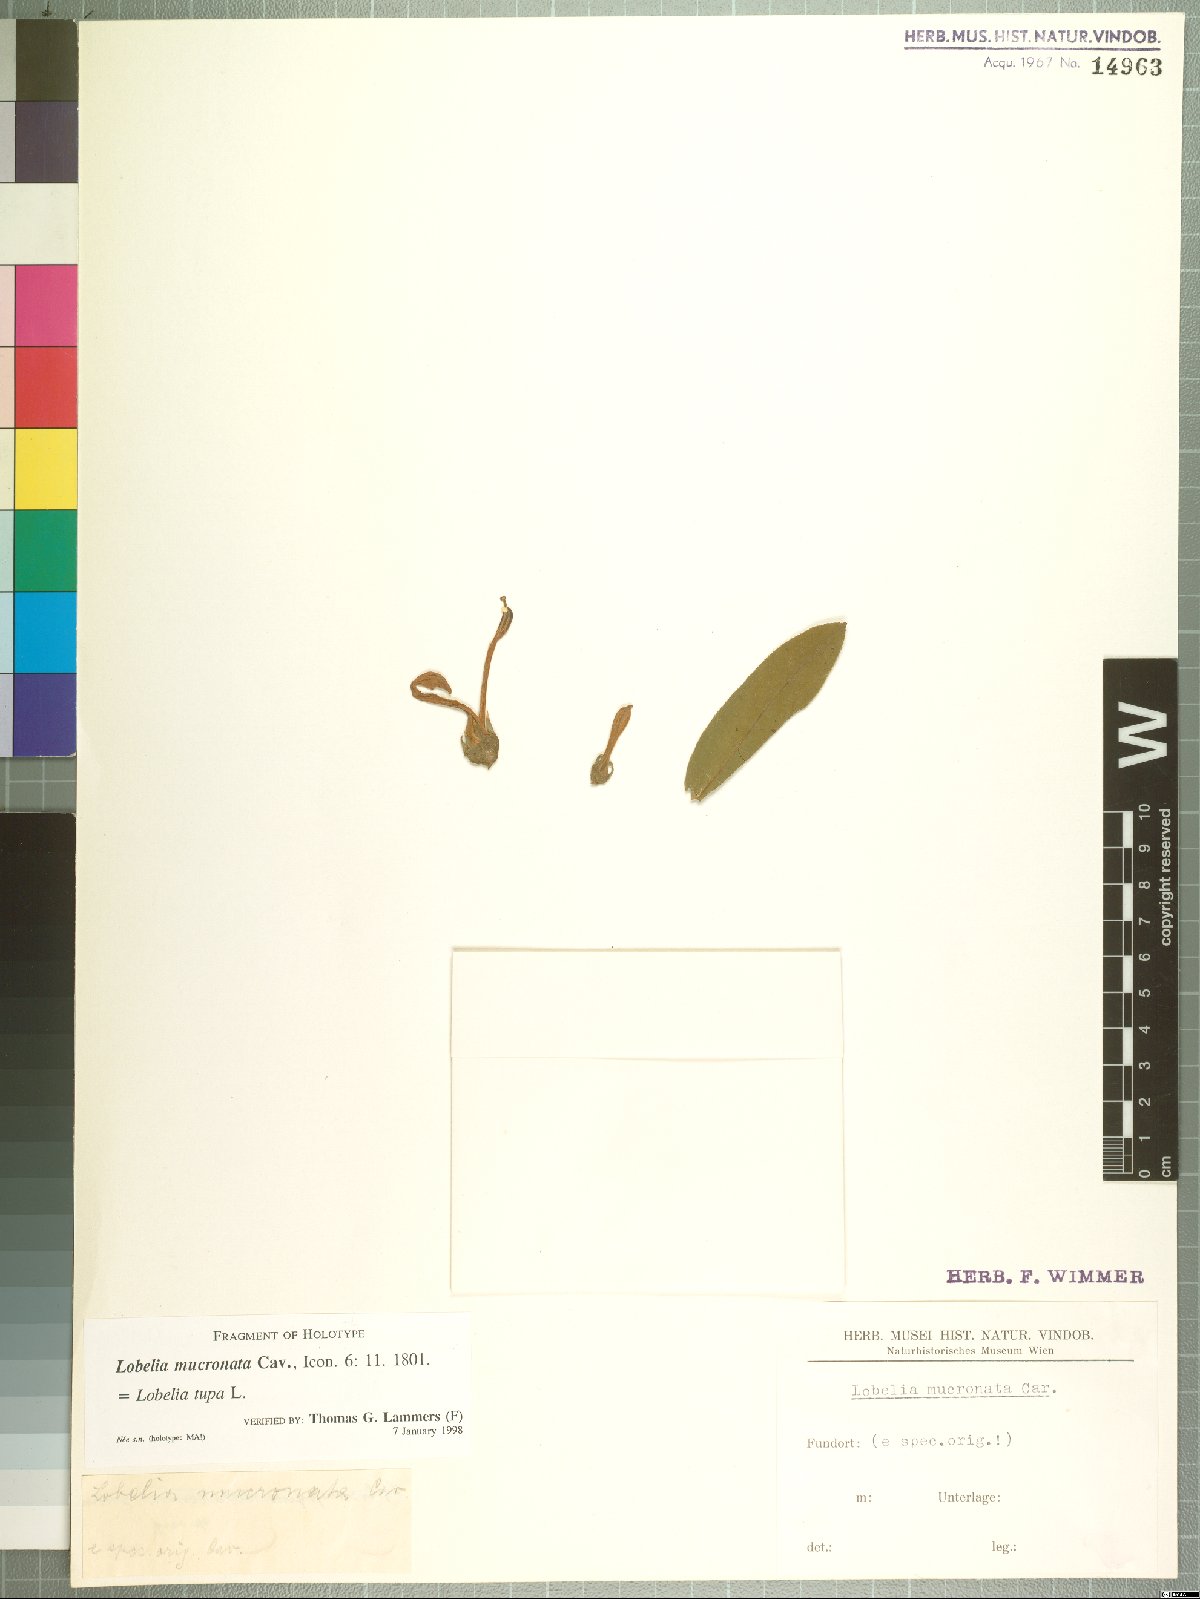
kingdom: Plantae
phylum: Tracheophyta
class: Magnoliopsida
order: Asterales
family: Campanulaceae
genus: Lobelia
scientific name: Lobelia tupa
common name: Devil's-tobacco
